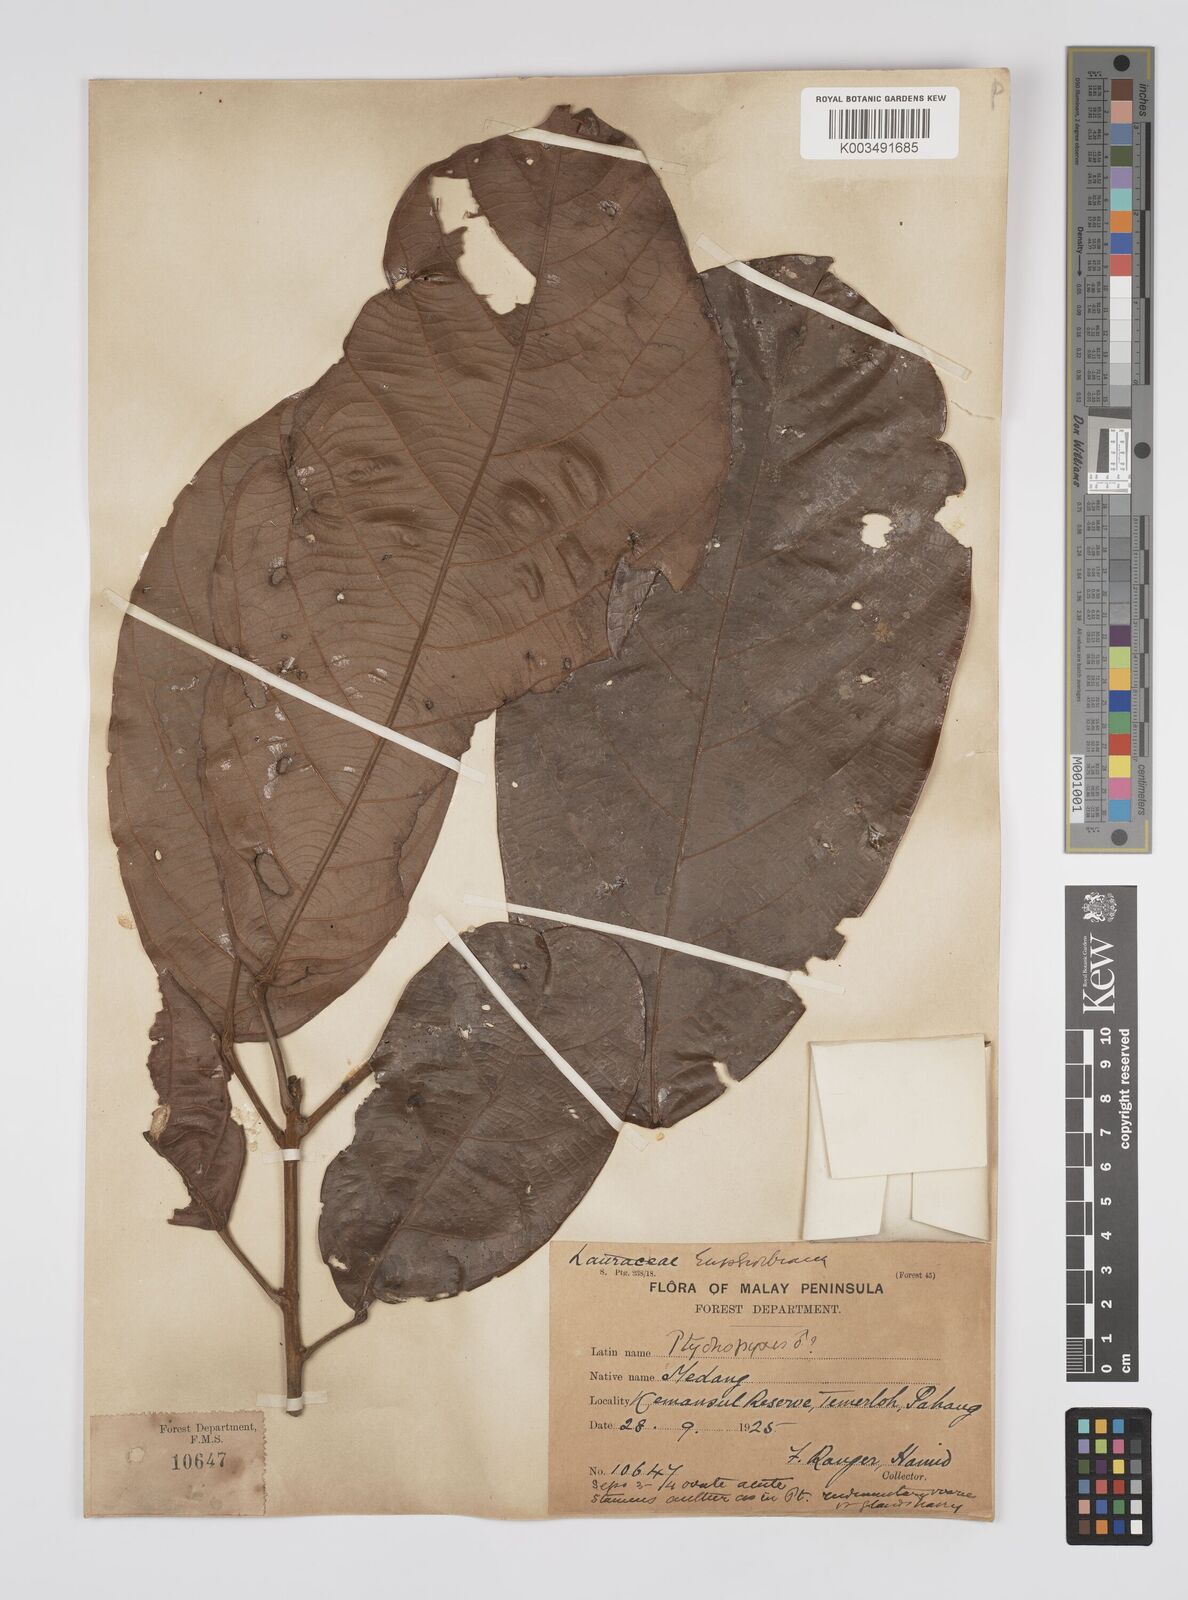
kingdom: Plantae
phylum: Tracheophyta
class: Magnoliopsida
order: Malpighiales
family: Euphorbiaceae
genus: Ptychopyxis
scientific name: Ptychopyxis kingii
